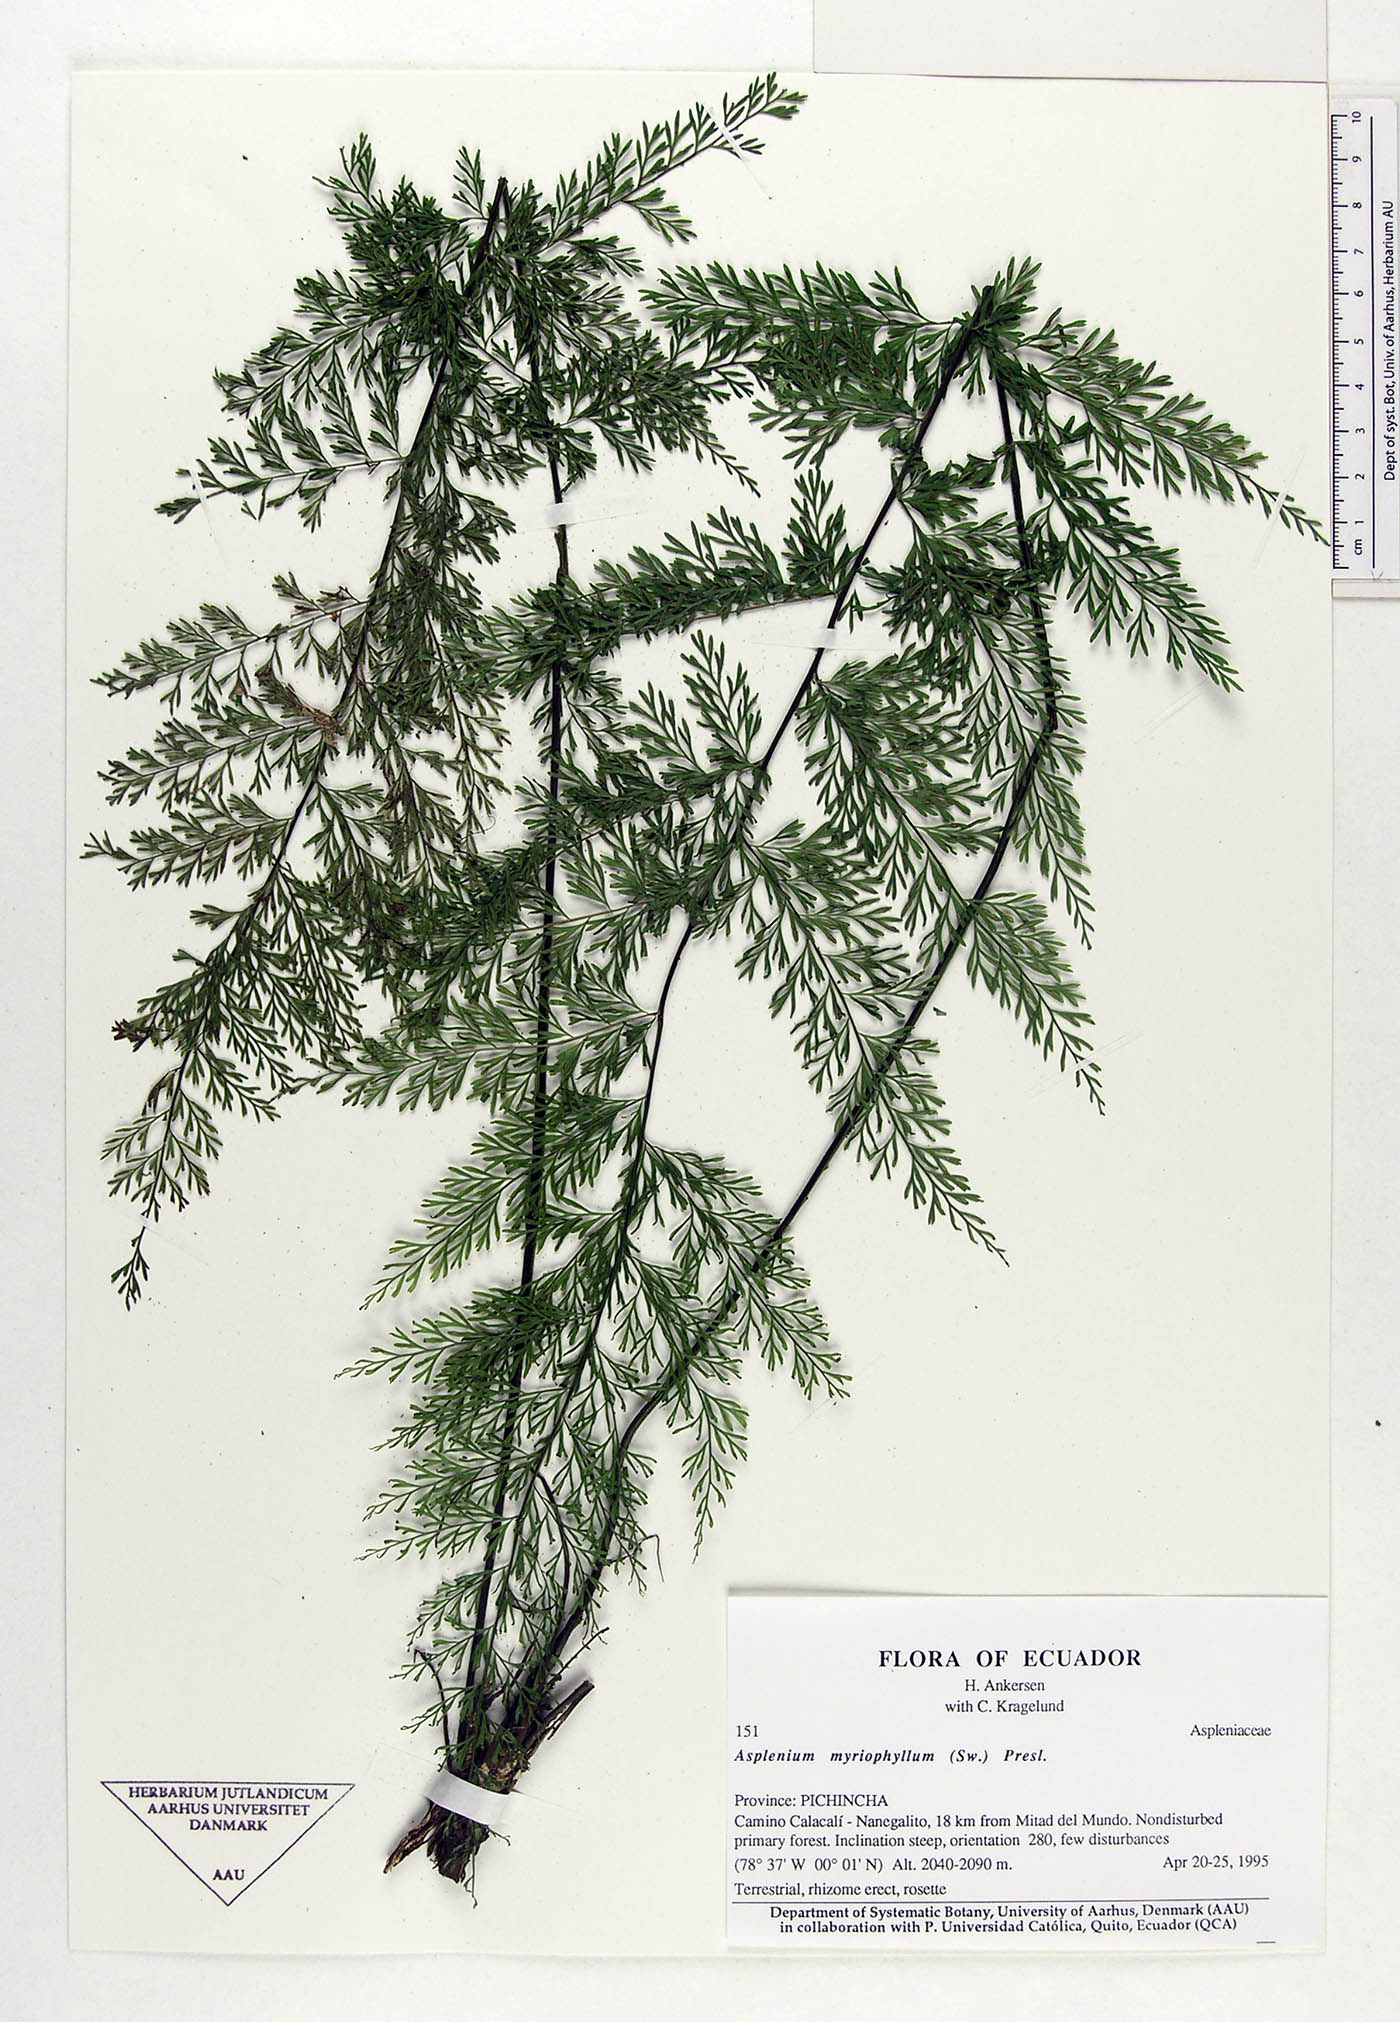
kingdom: Plantae
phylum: Tracheophyta
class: Polypodiopsida
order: Polypodiales
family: Aspleniaceae
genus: Asplenium
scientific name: Asplenium myriophyllum
